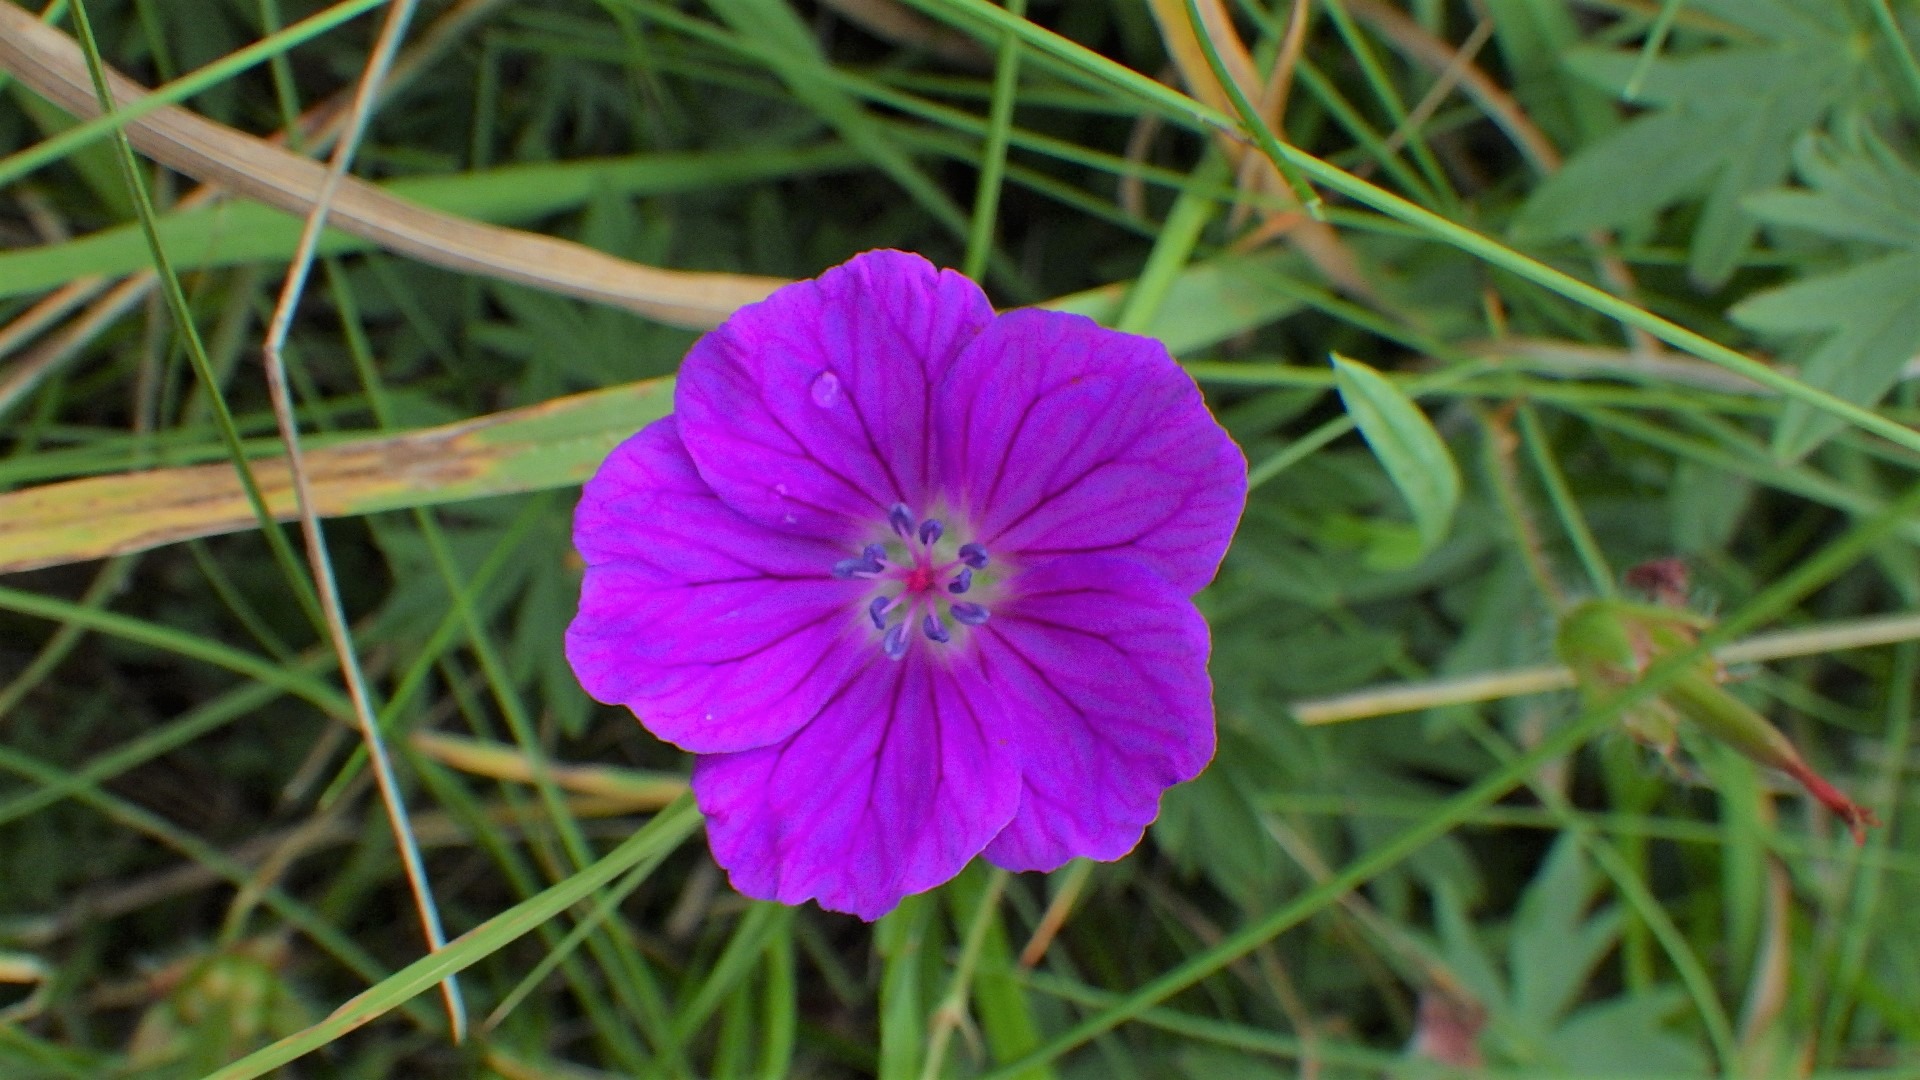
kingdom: Plantae
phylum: Tracheophyta
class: Magnoliopsida
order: Geraniales
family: Geraniaceae
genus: Geranium
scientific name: Geranium sanguineum
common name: Blodrød storkenæb
